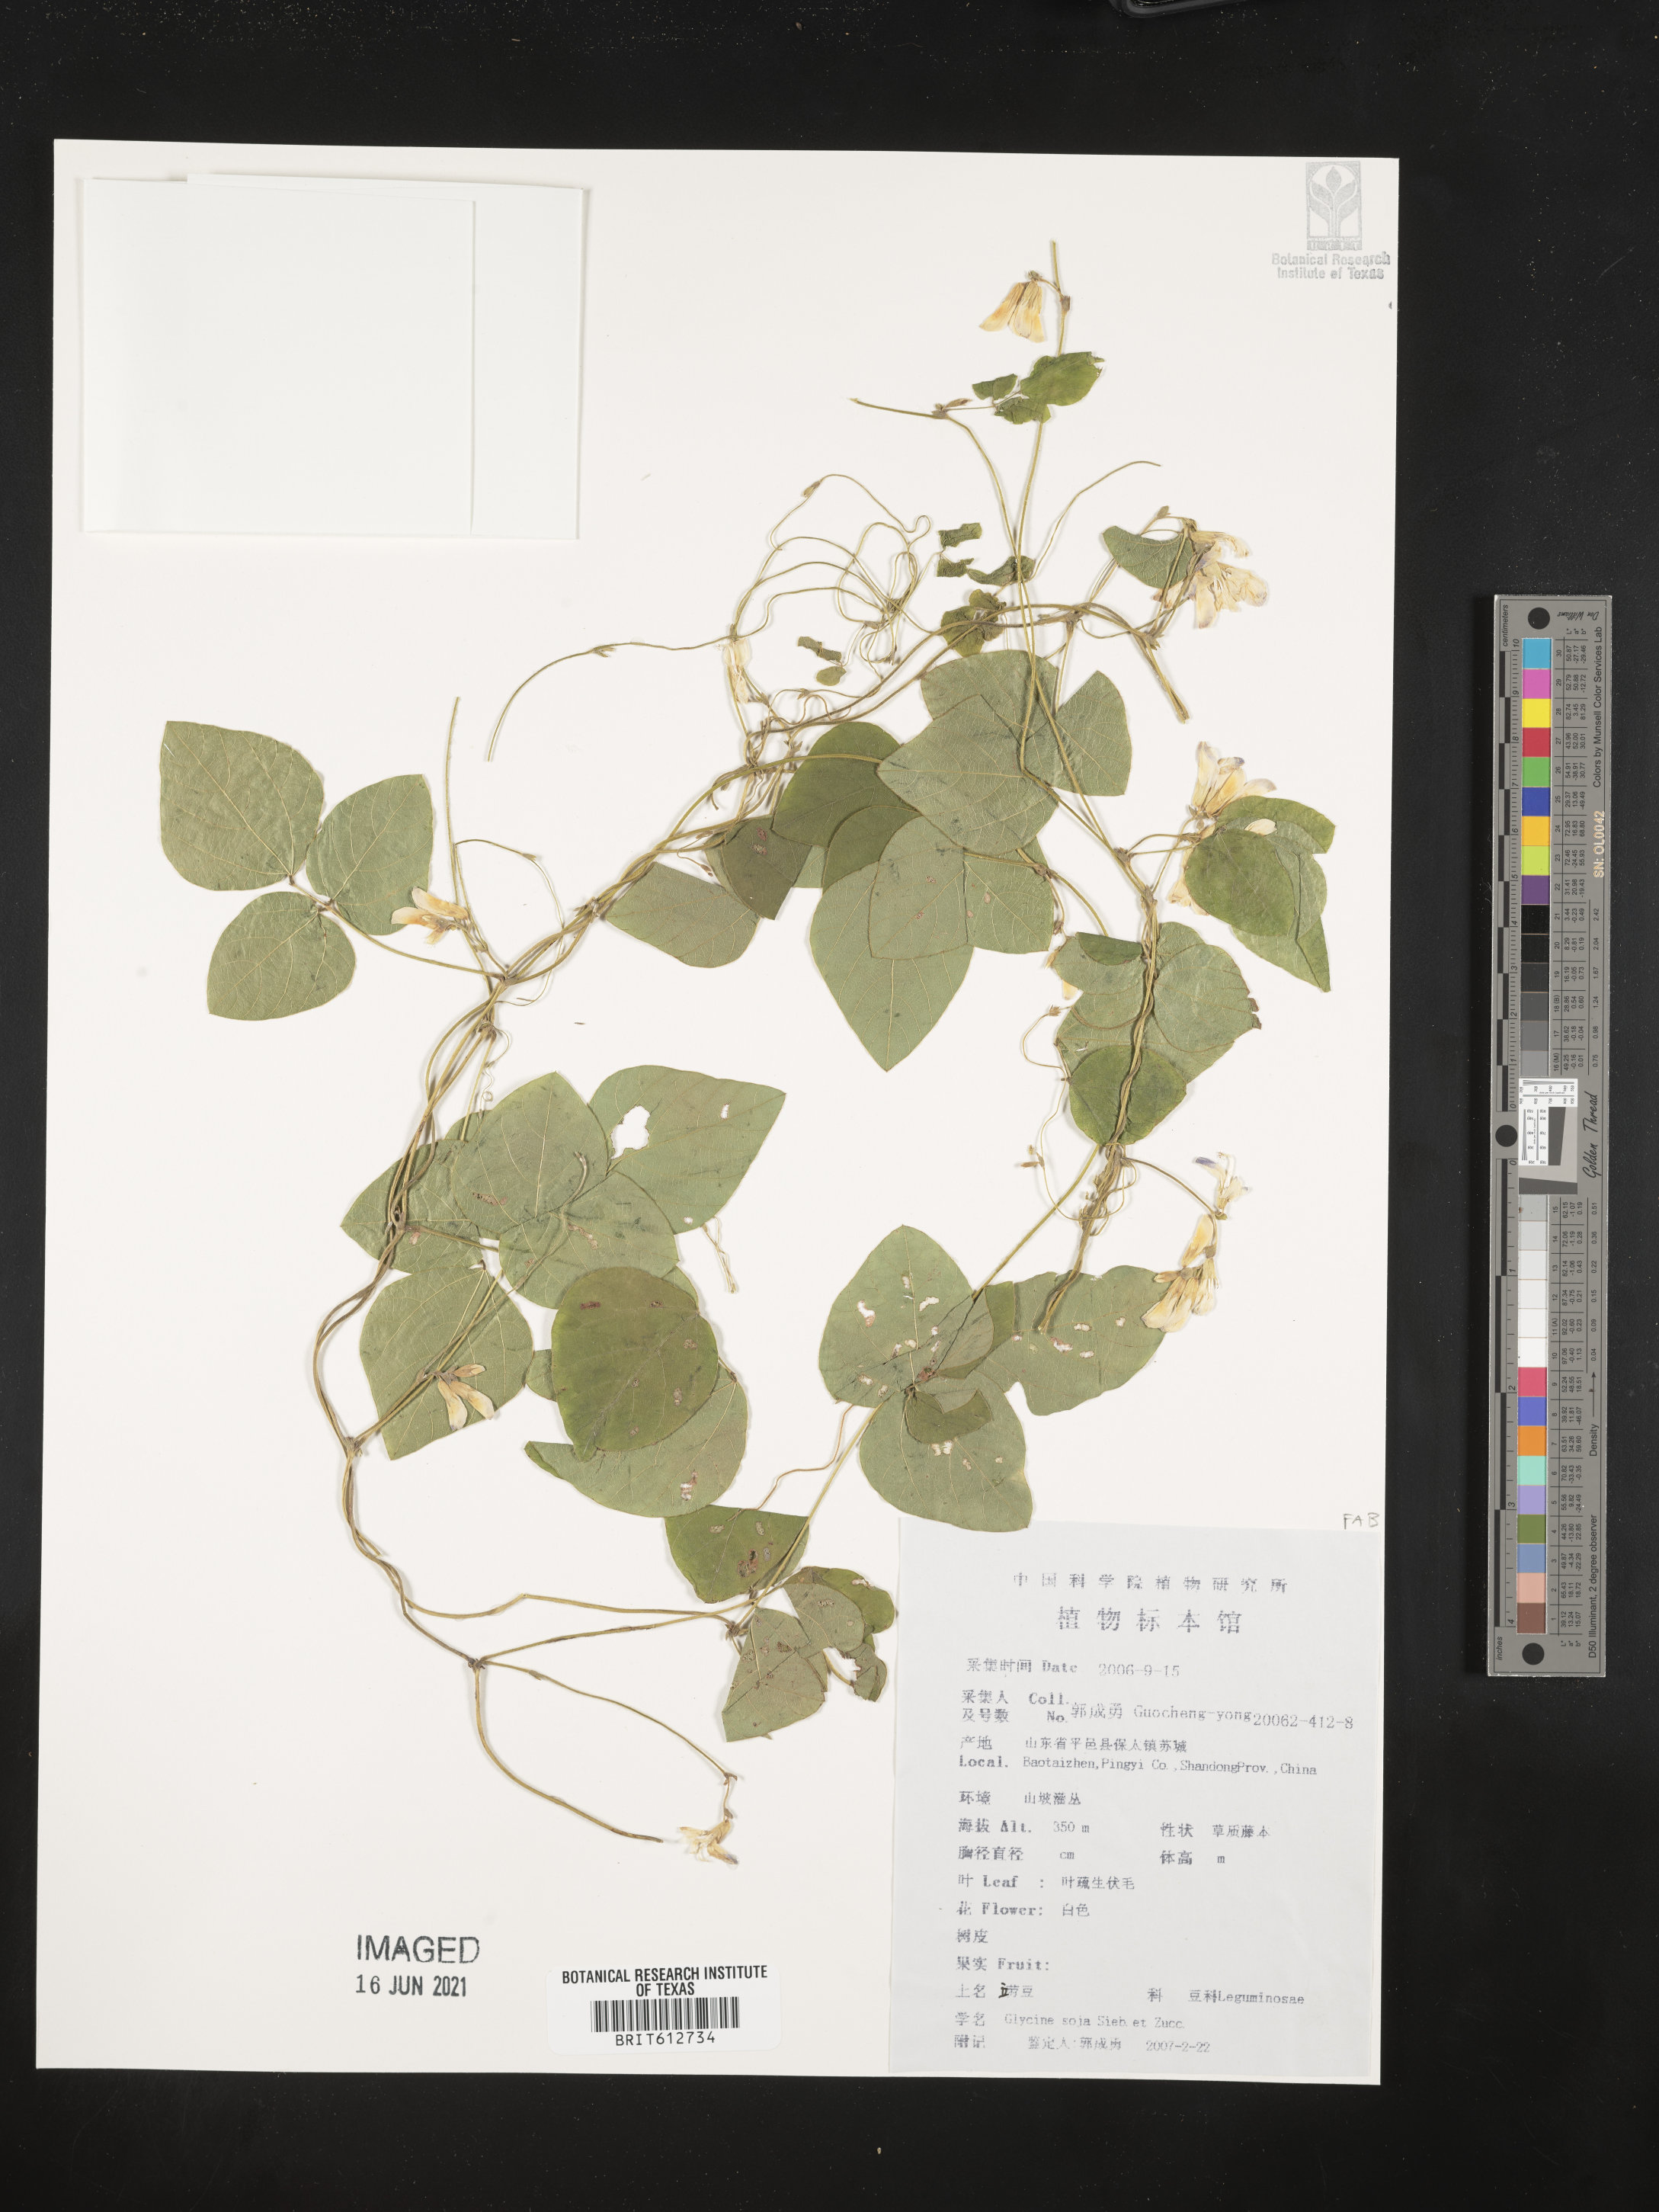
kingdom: Plantae
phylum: Tracheophyta
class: Magnoliopsida
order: Fabales
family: Fabaceae
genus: Glycine
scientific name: Glycine max
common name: Soya-bean
